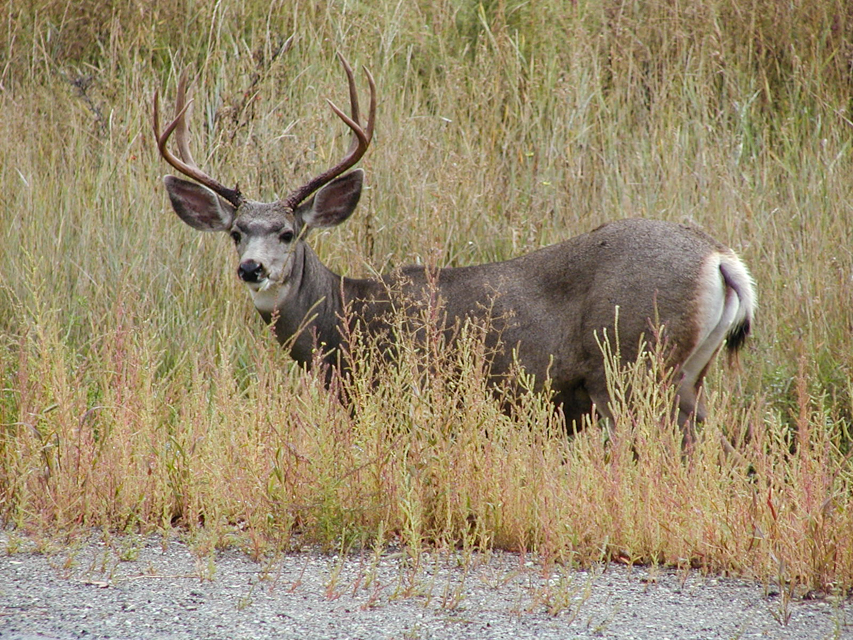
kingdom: Animalia
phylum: Chordata
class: Mammalia
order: Artiodactyla
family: Cervidae
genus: Rangifer
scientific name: Rangifer tarandus
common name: Reindeer
